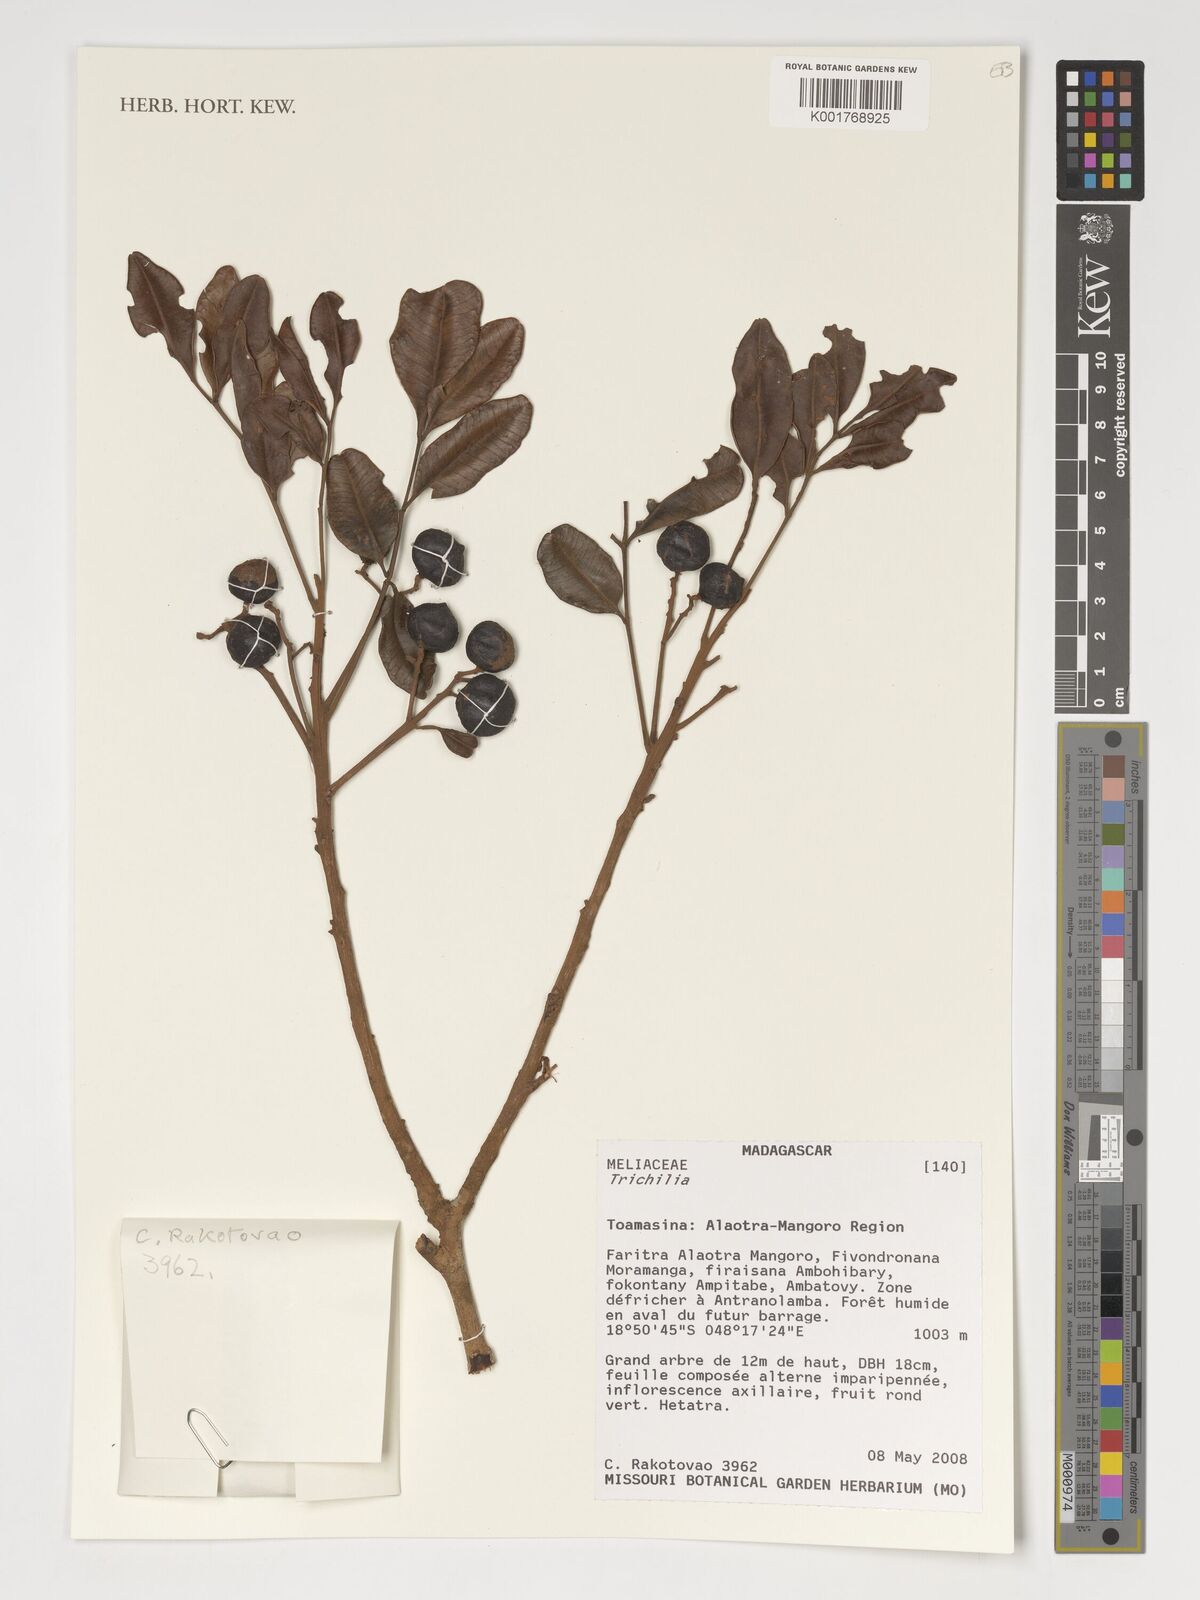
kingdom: Plantae
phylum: Tracheophyta
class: Magnoliopsida
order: Sapindales
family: Meliaceae
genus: Trichilia
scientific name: Trichilia
